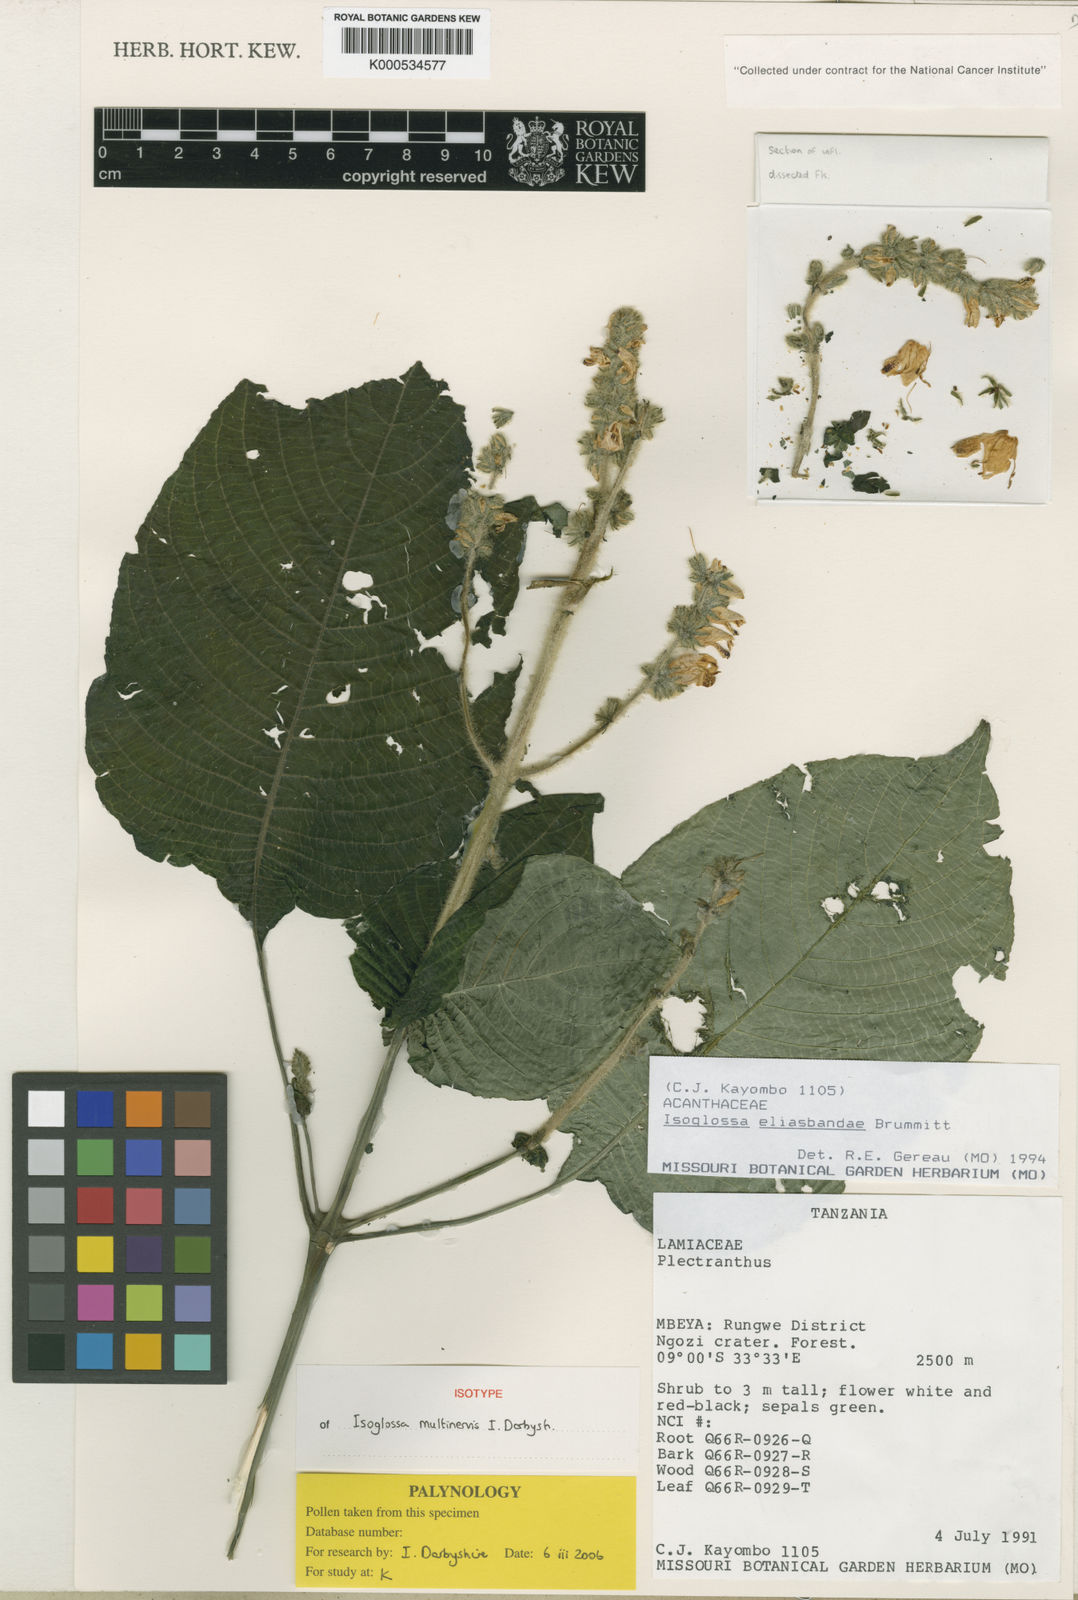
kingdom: Plantae
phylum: Tracheophyta
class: Magnoliopsida
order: Lamiales
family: Acanthaceae
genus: Isoglossa
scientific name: Isoglossa multinervis
